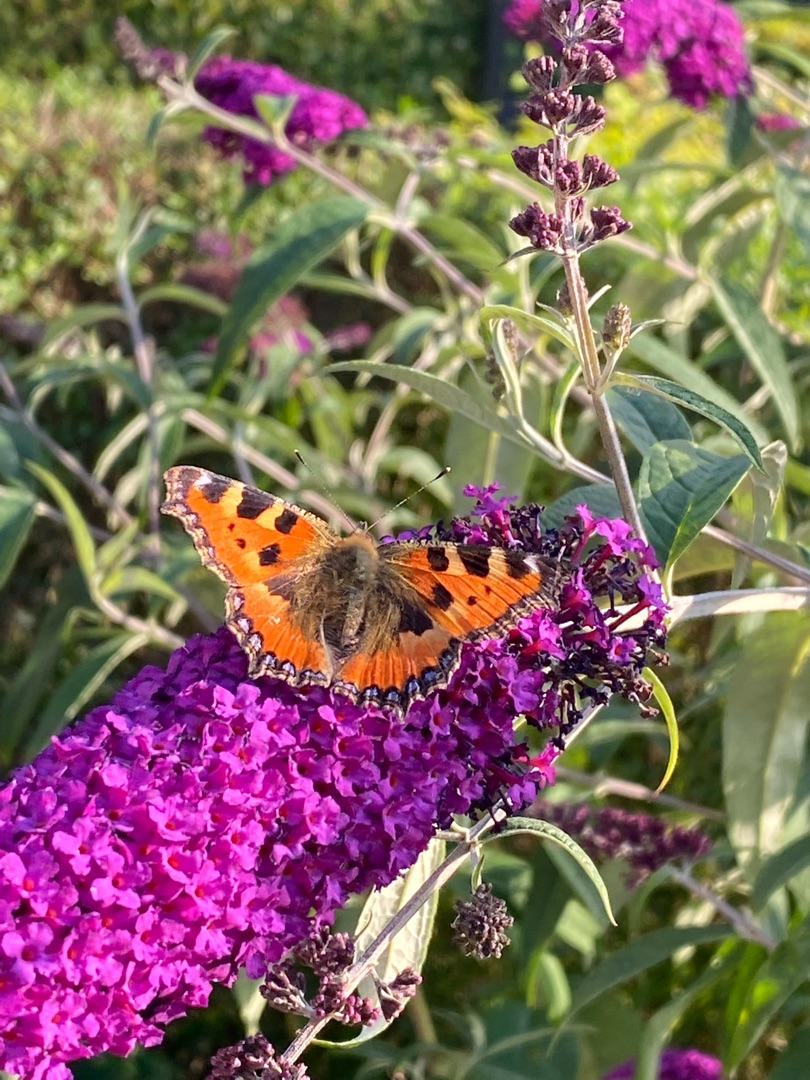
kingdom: Animalia
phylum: Arthropoda
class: Insecta
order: Lepidoptera
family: Nymphalidae
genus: Aglais
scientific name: Aglais urticae
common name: Nældens takvinge
